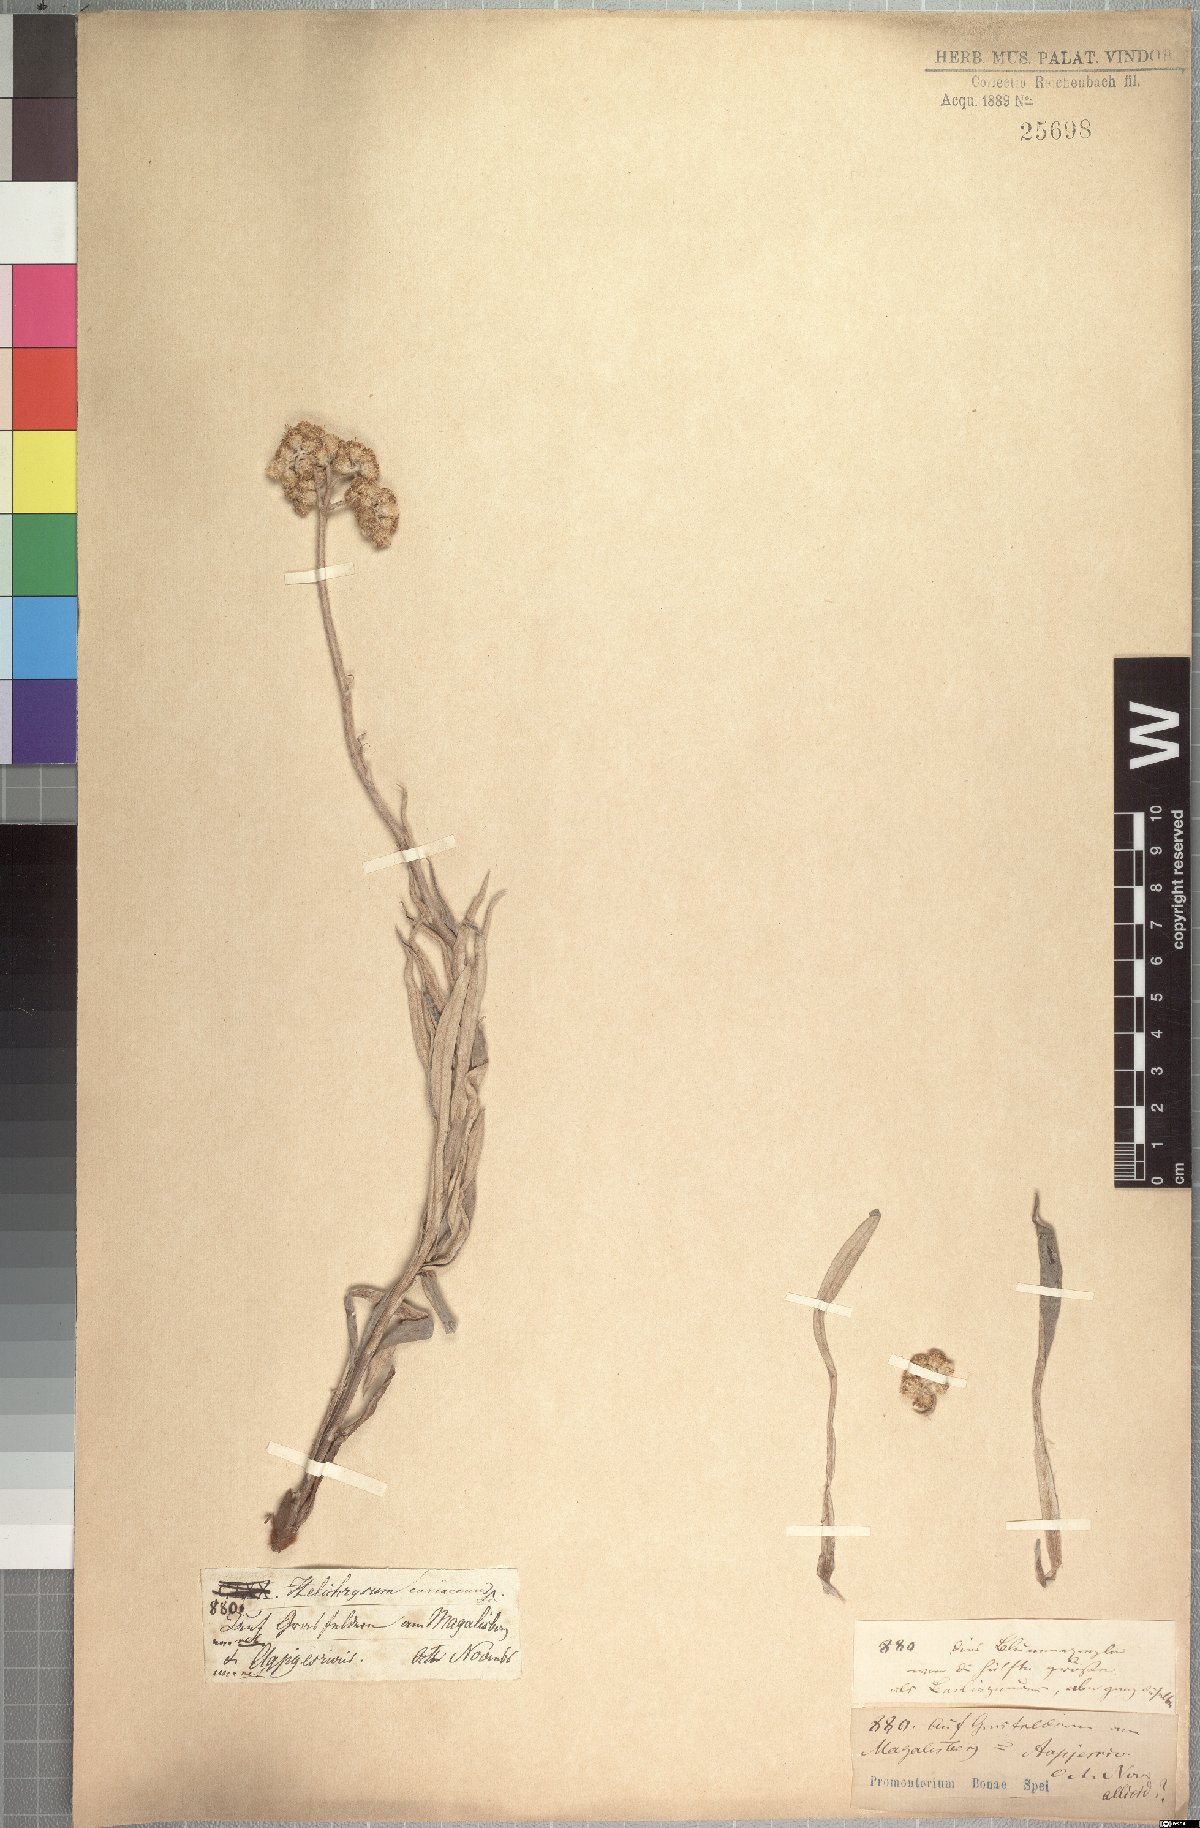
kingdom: Plantae
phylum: Tracheophyta
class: Magnoliopsida
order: Asterales
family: Asteraceae
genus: Helichrysum
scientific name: Helichrysum nudifolium
